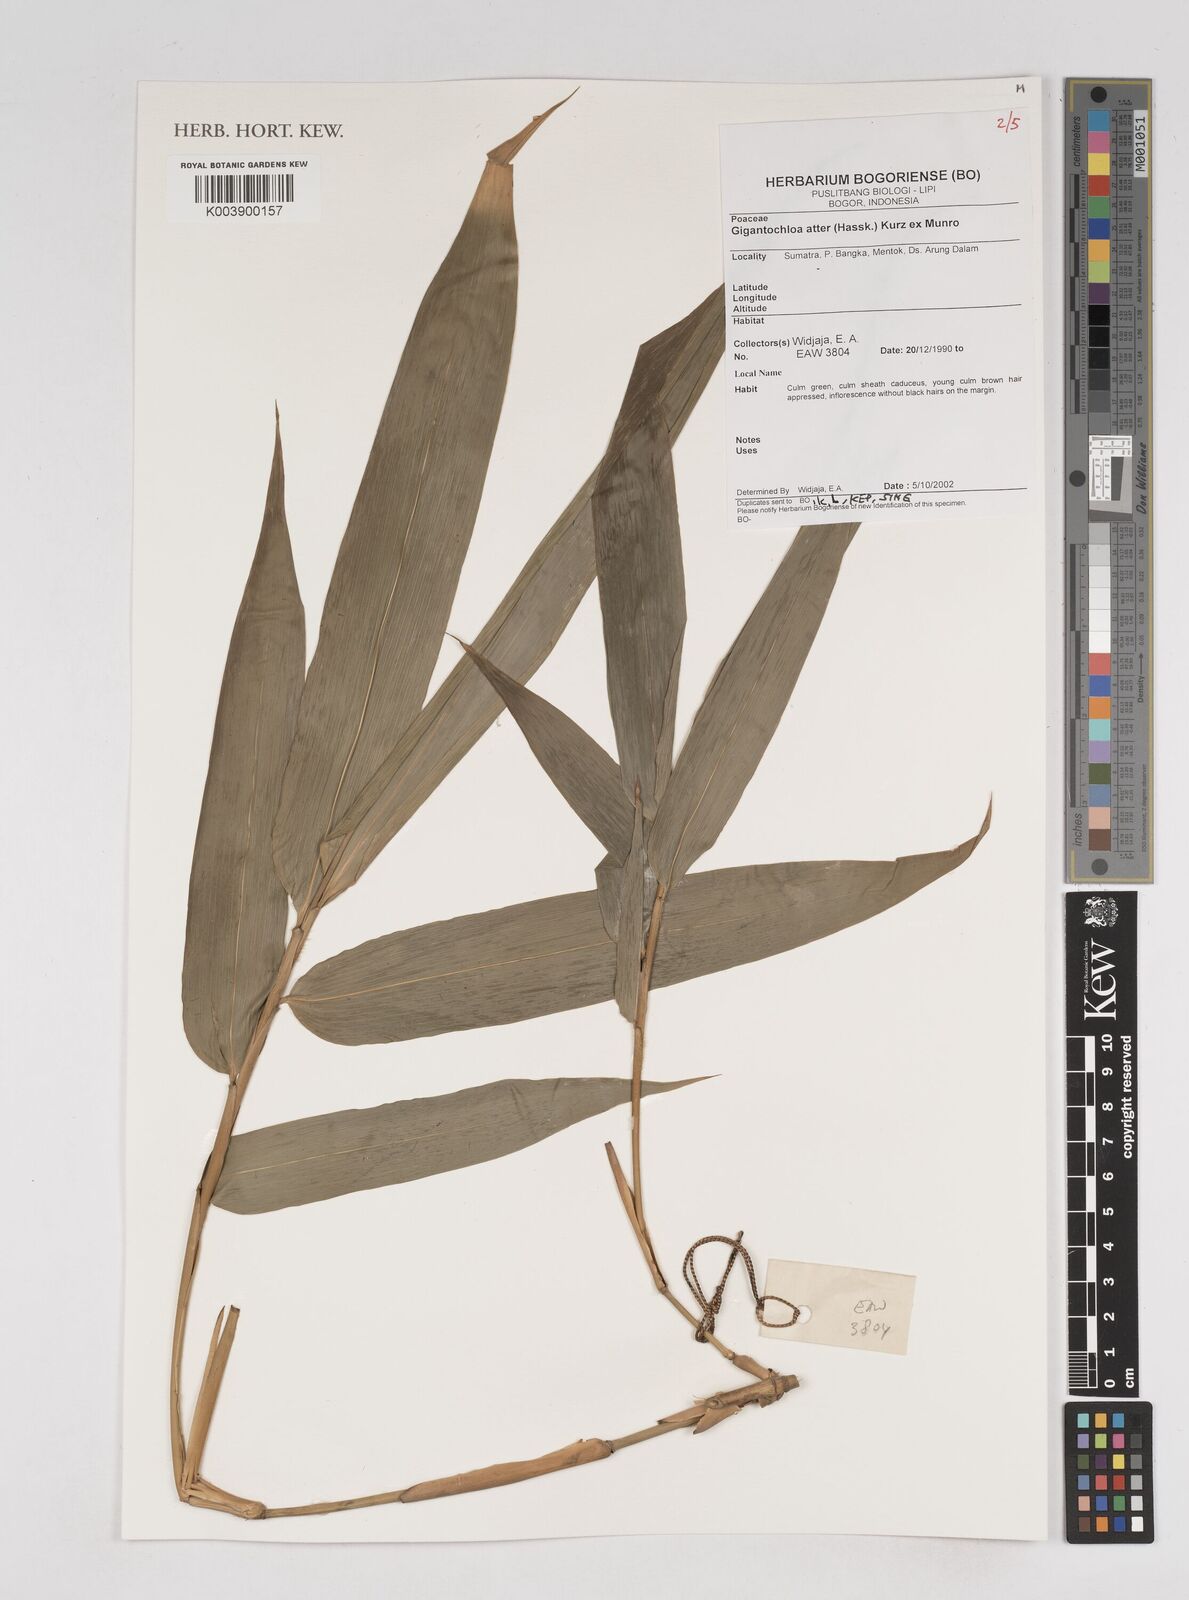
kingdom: Plantae
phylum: Tracheophyta
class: Liliopsida
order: Poales
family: Poaceae
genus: Gigantochloa
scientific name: Gigantochloa atter
